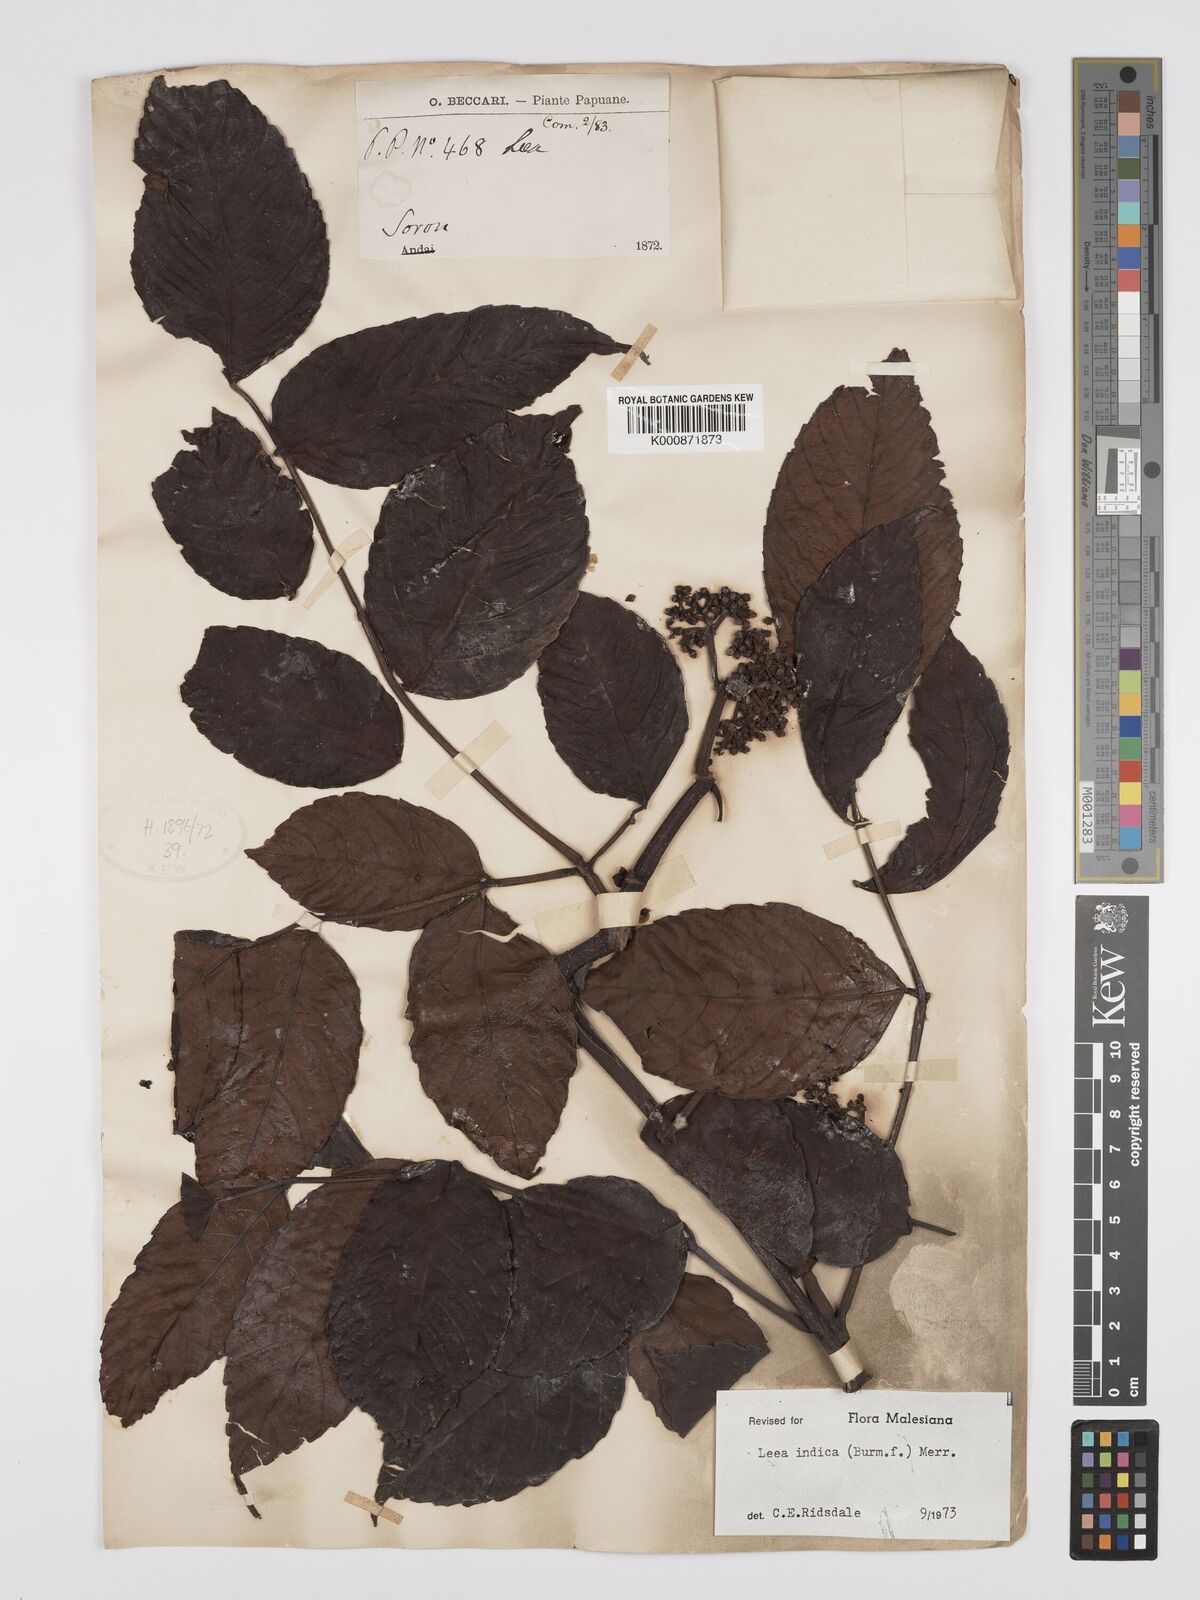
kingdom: Plantae
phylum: Tracheophyta
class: Magnoliopsida
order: Vitales
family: Vitaceae
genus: Leea
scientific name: Leea indica
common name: Bandicoot-berry
